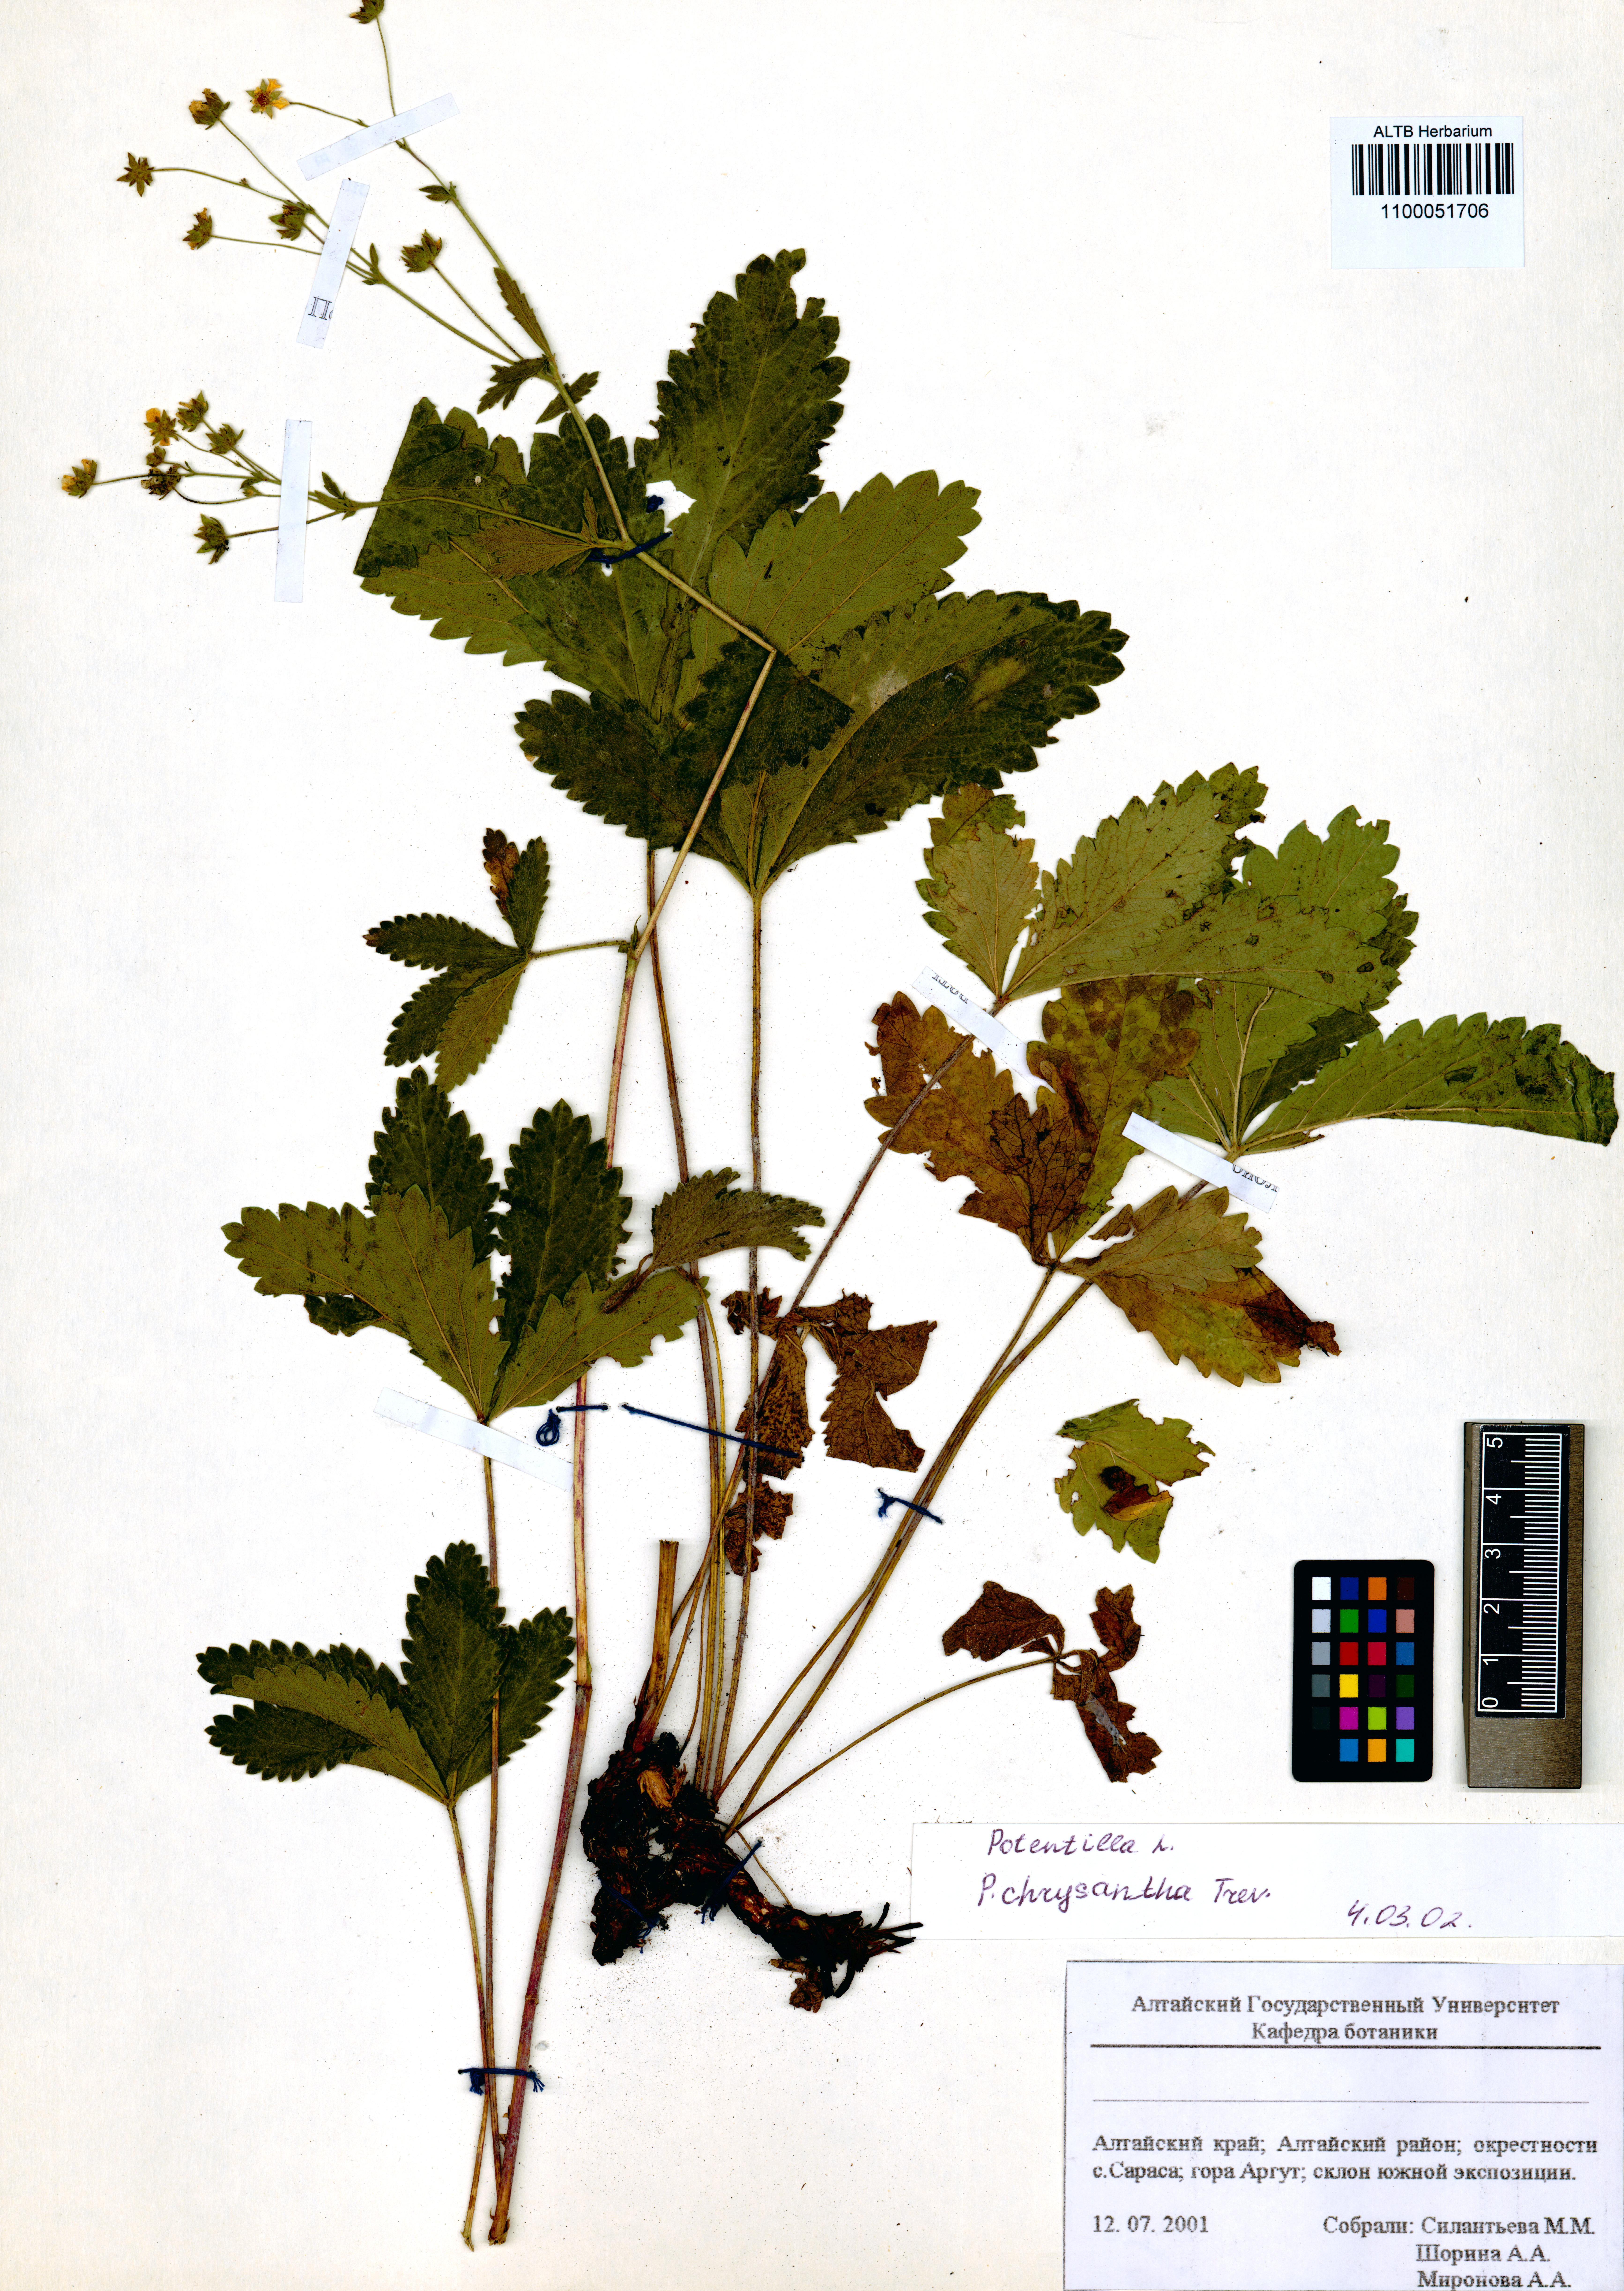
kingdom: Plantae
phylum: Tracheophyta
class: Magnoliopsida
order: Rosales
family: Rosaceae
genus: Potentilla
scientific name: Potentilla chrysantha
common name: Thuringian cinquefoil
